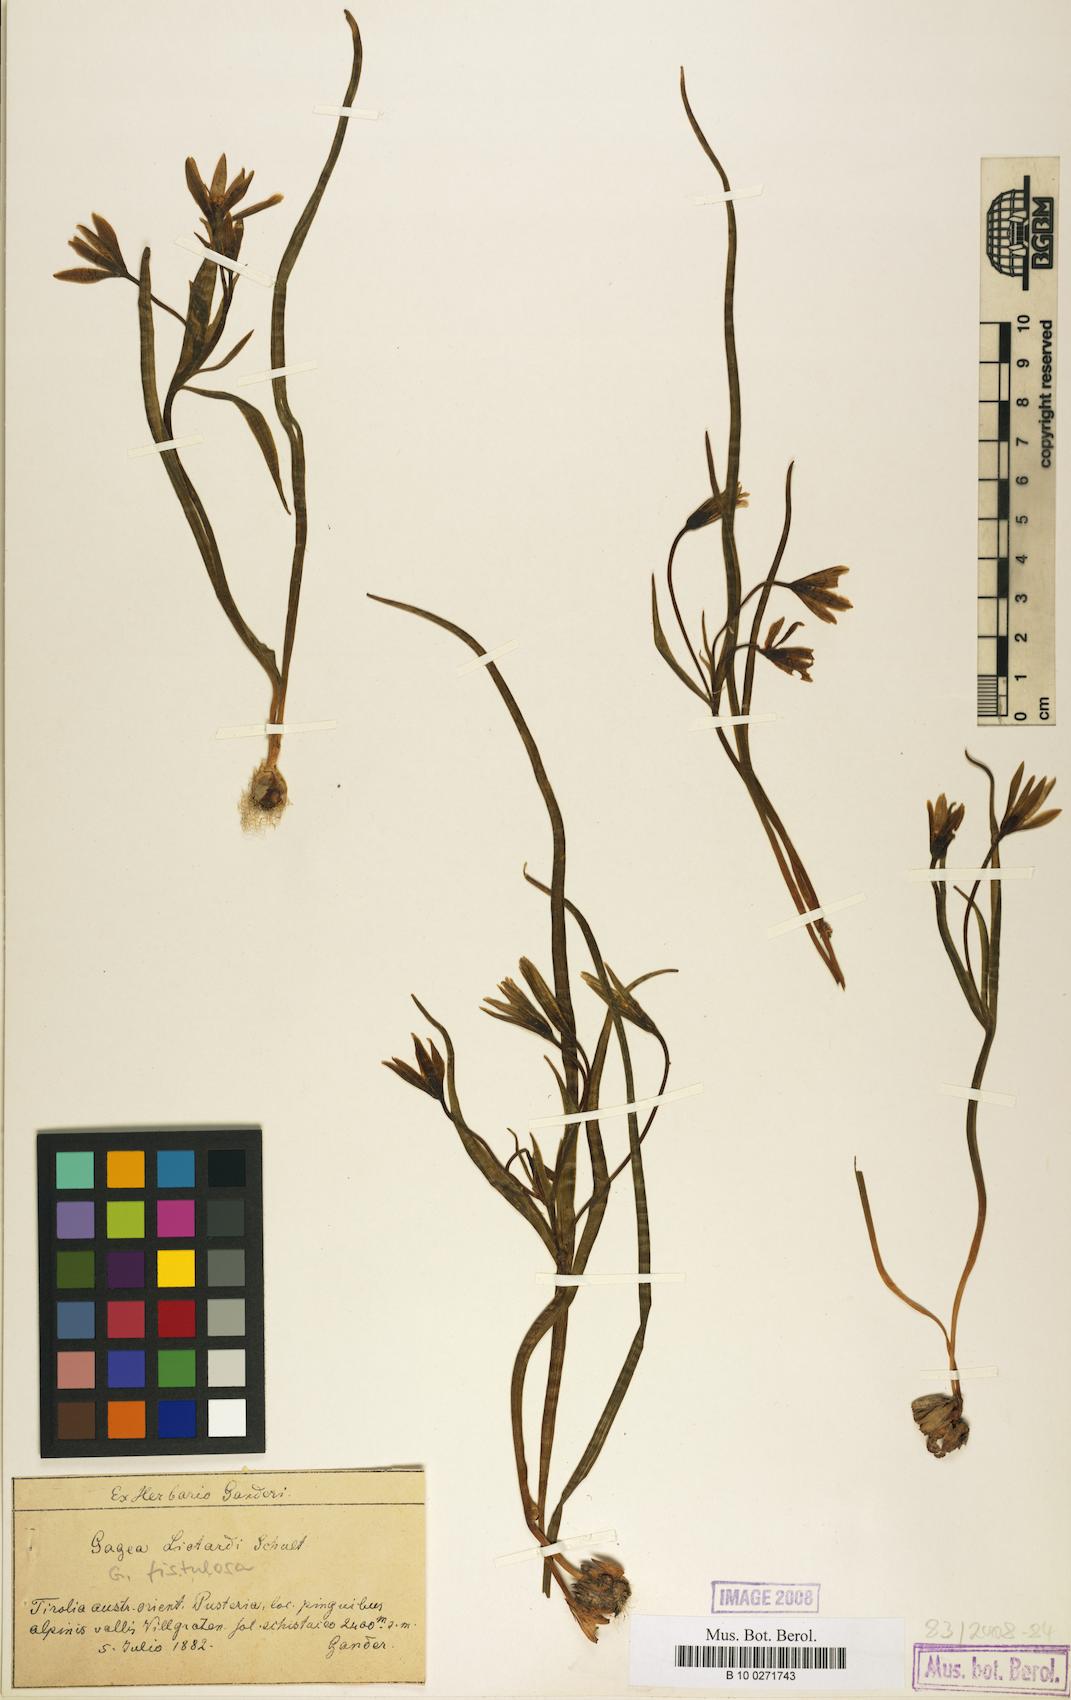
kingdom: Plantae
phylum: Tracheophyta
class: Liliopsida
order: Liliales
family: Liliaceae
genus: Gagea
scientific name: Gagea bohemica
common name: Early star-of-bethlehem
